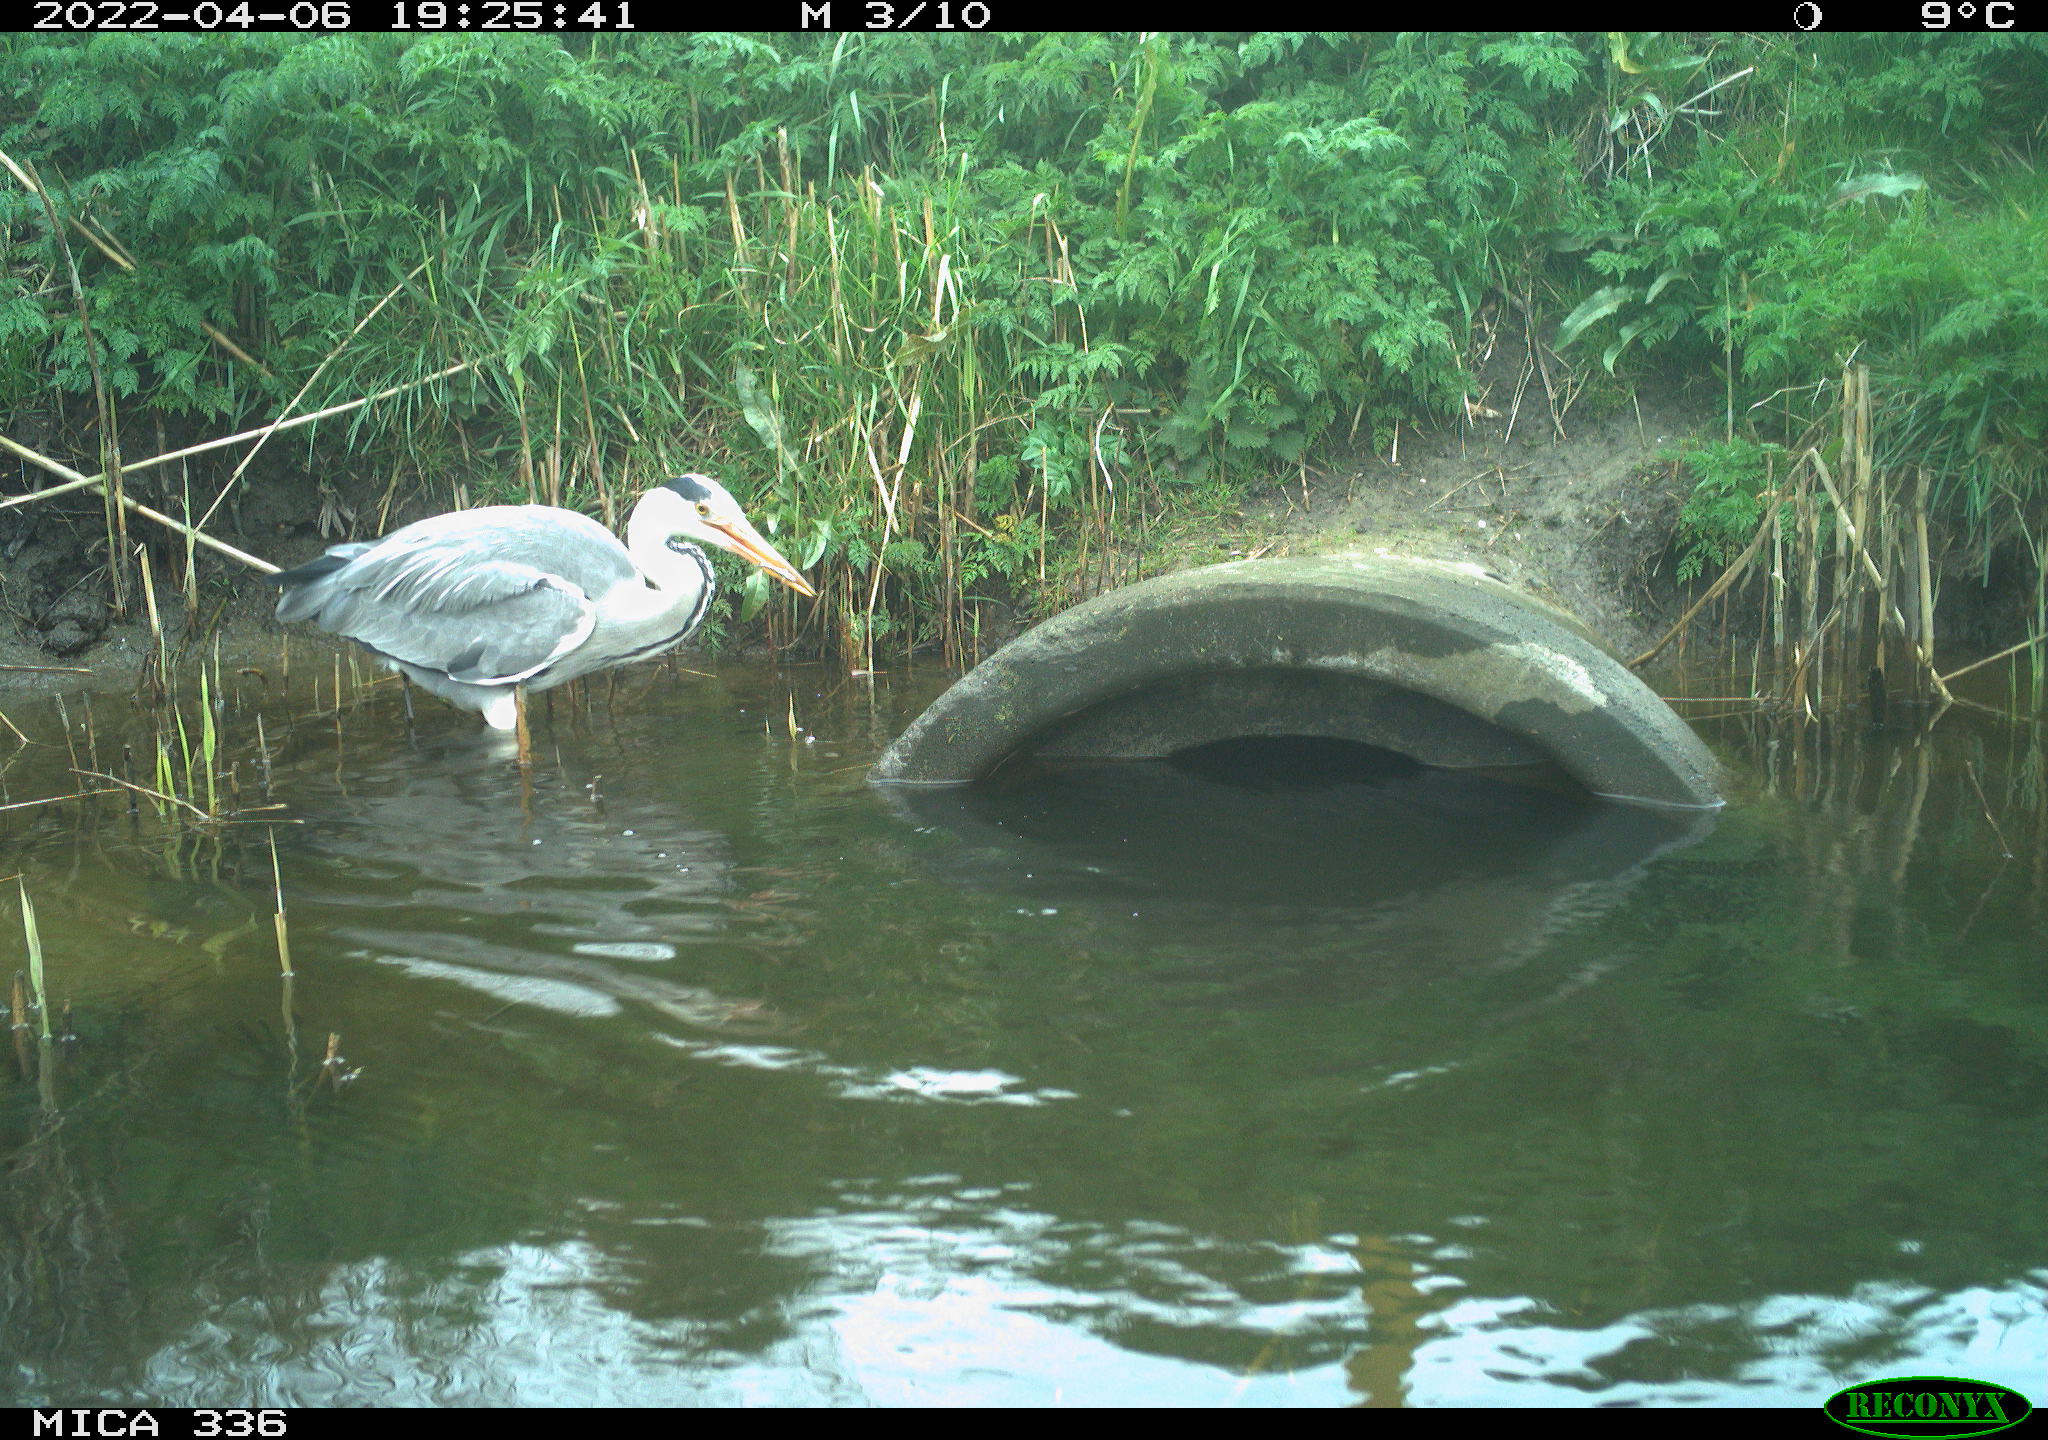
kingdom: Animalia
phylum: Chordata
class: Aves
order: Pelecaniformes
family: Ardeidae
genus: Ardea
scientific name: Ardea
